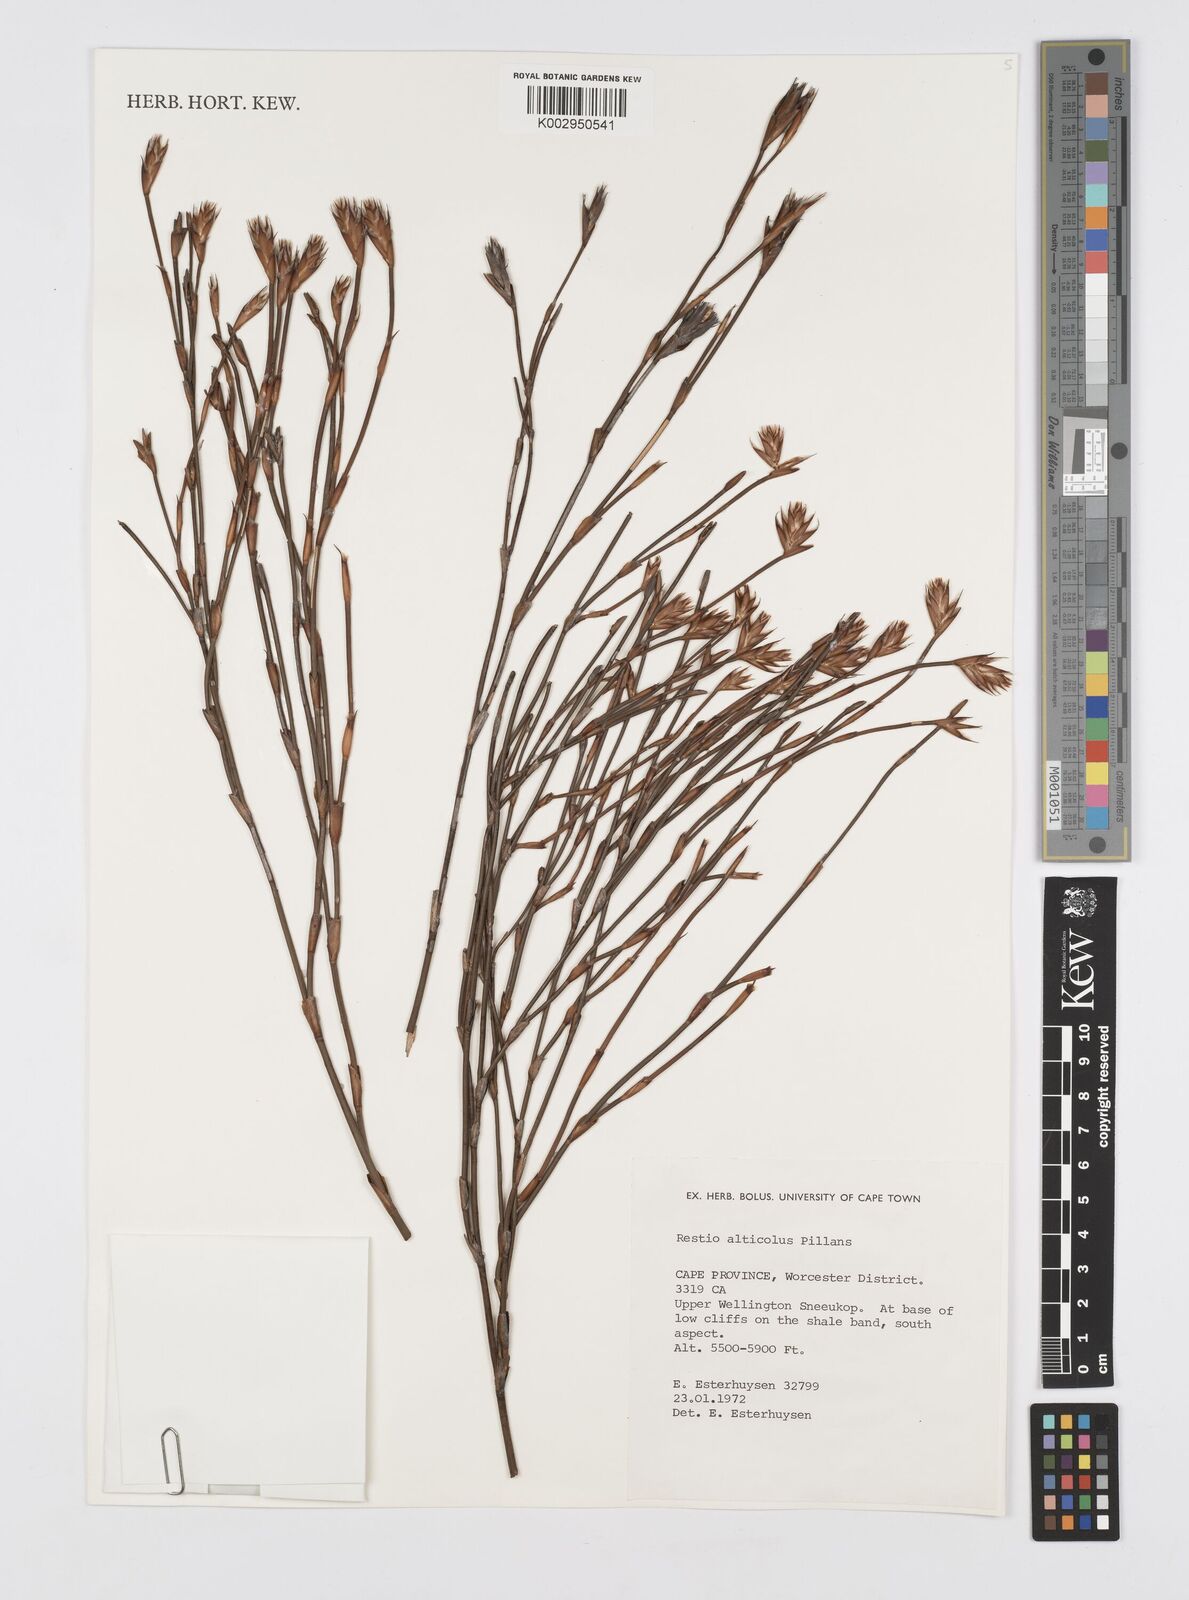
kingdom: Plantae
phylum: Tracheophyta
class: Liliopsida
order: Poales
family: Restionaceae
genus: Restio
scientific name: Restio alticola
